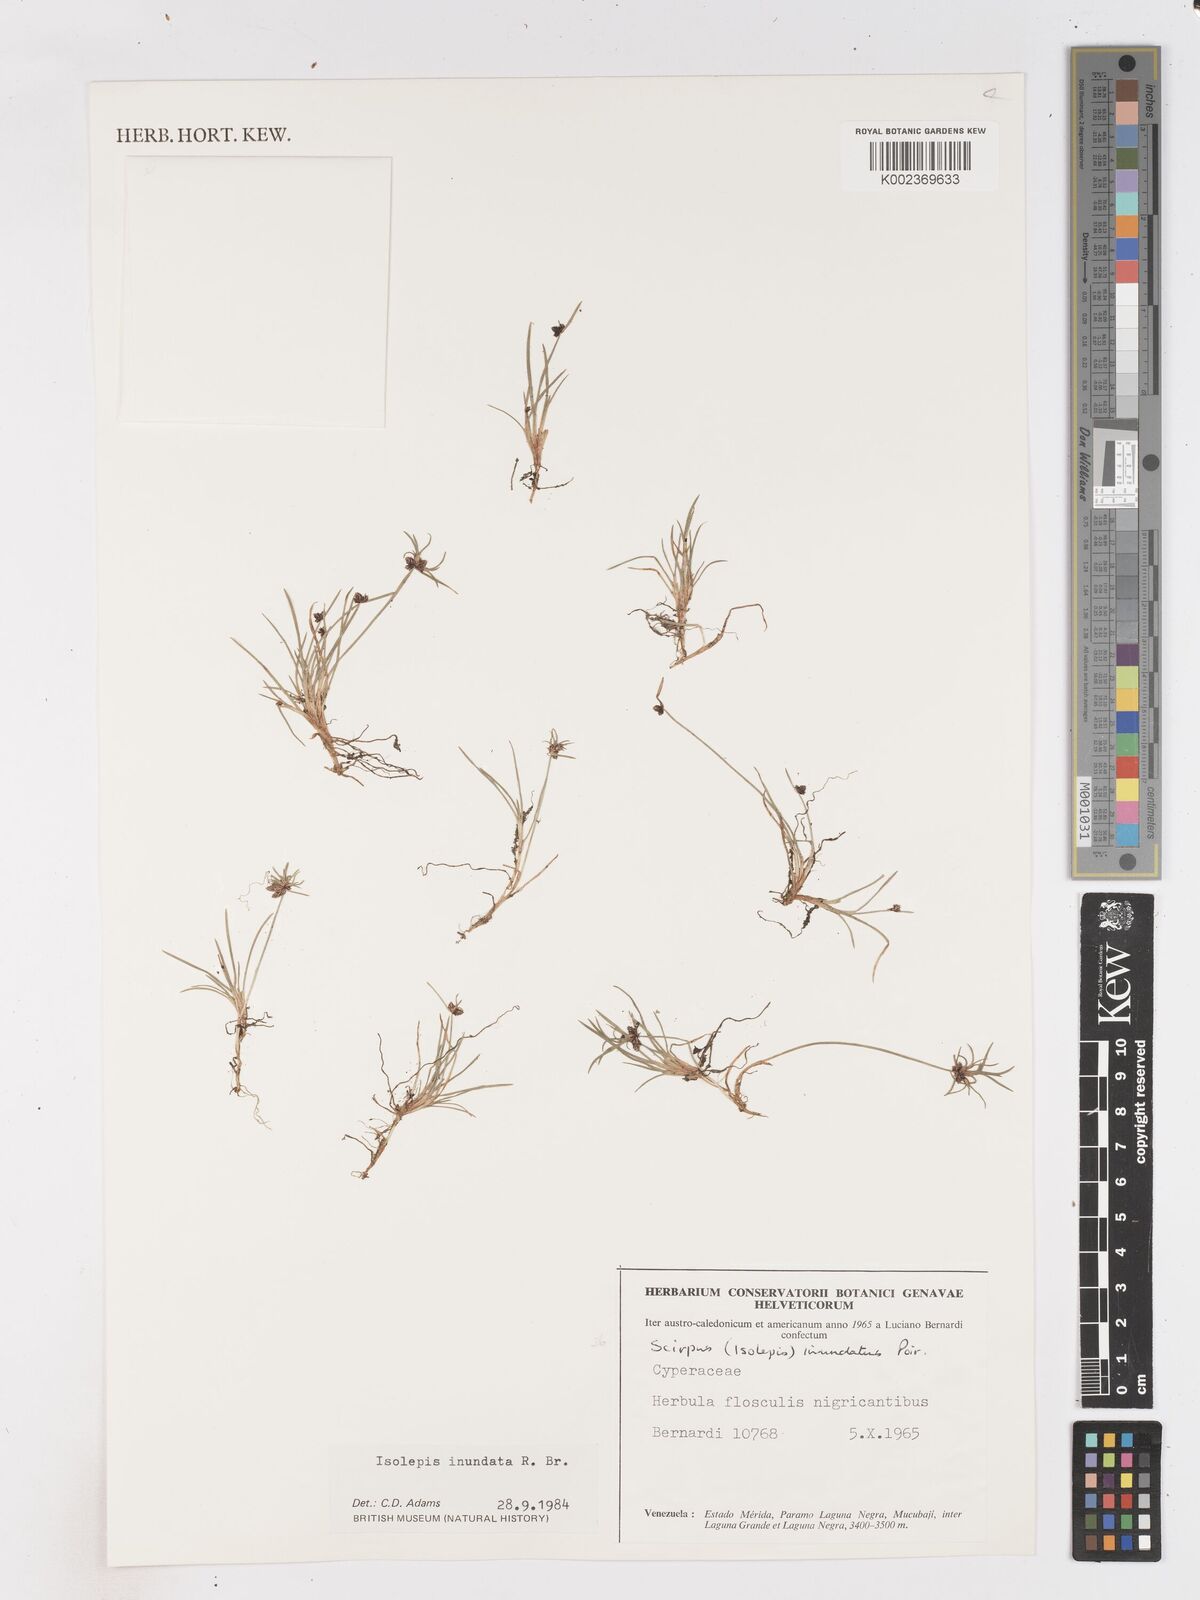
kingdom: Plantae
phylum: Tracheophyta
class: Liliopsida
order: Poales
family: Cyperaceae
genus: Isolepis
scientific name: Isolepis inundata
